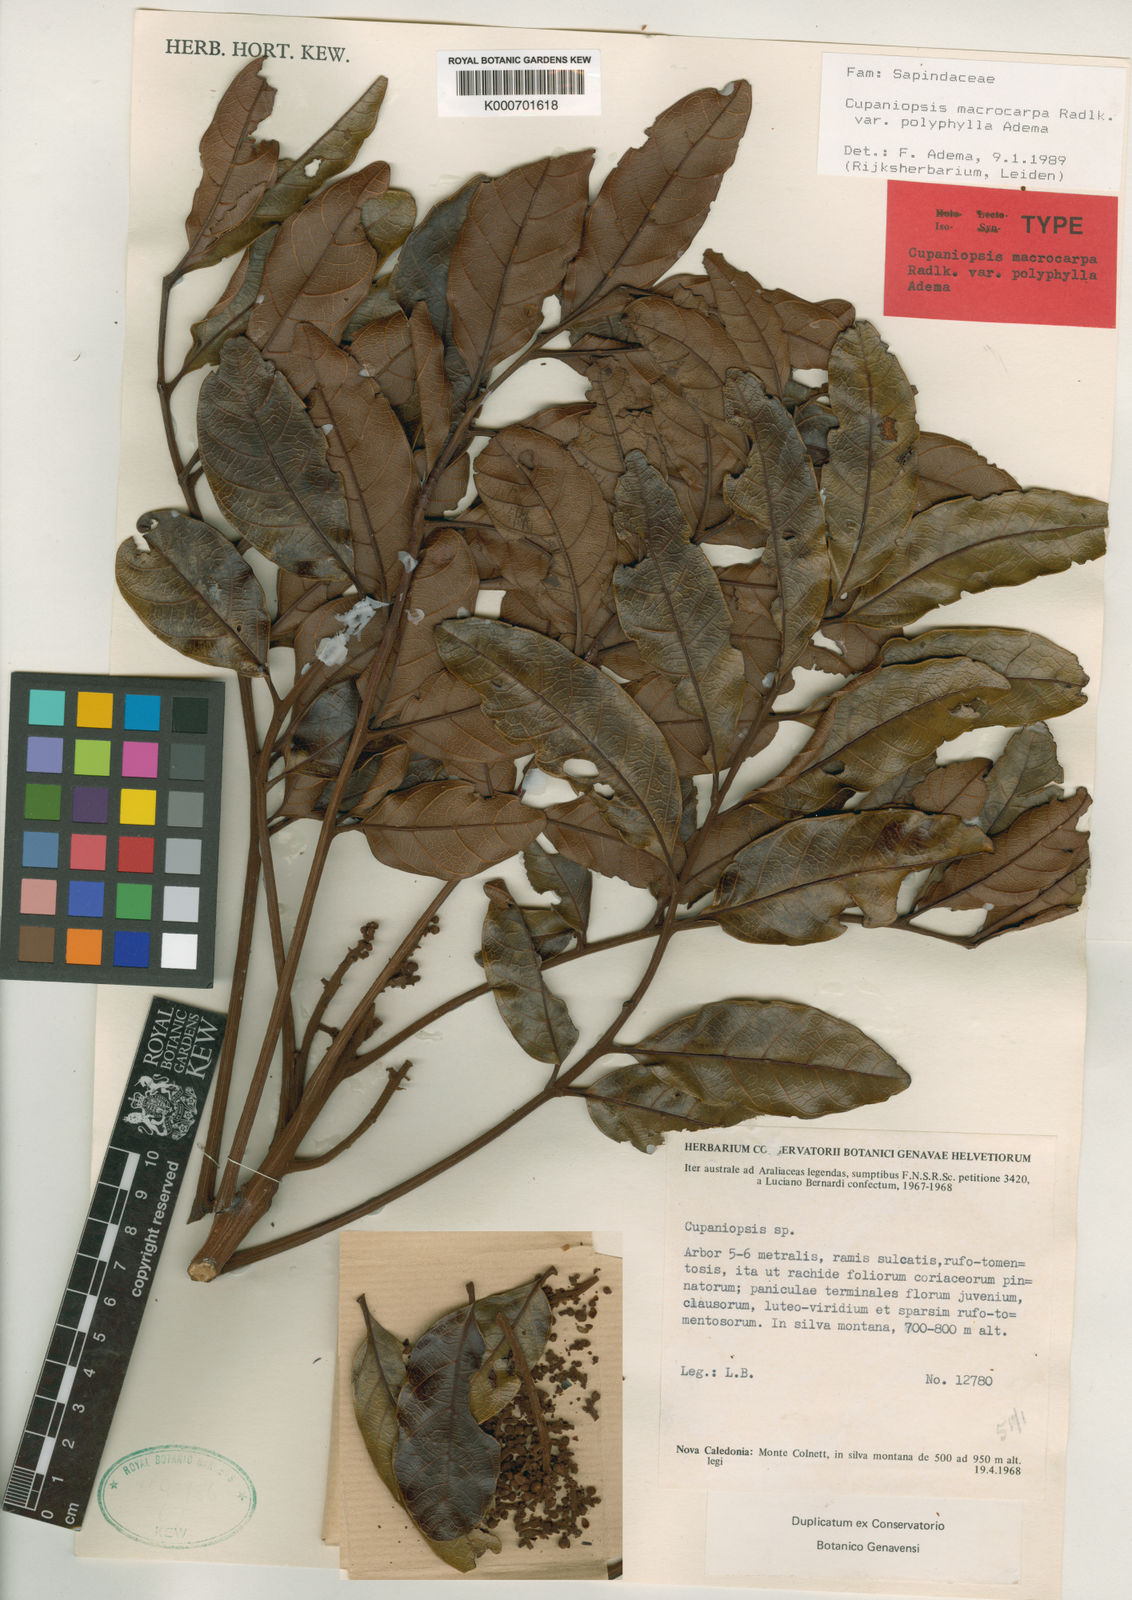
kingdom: Plantae
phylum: Tracheophyta
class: Magnoliopsida
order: Sapindales
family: Sapindaceae
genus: Cupaniopsis
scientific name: Cupaniopsis macrocarpa
